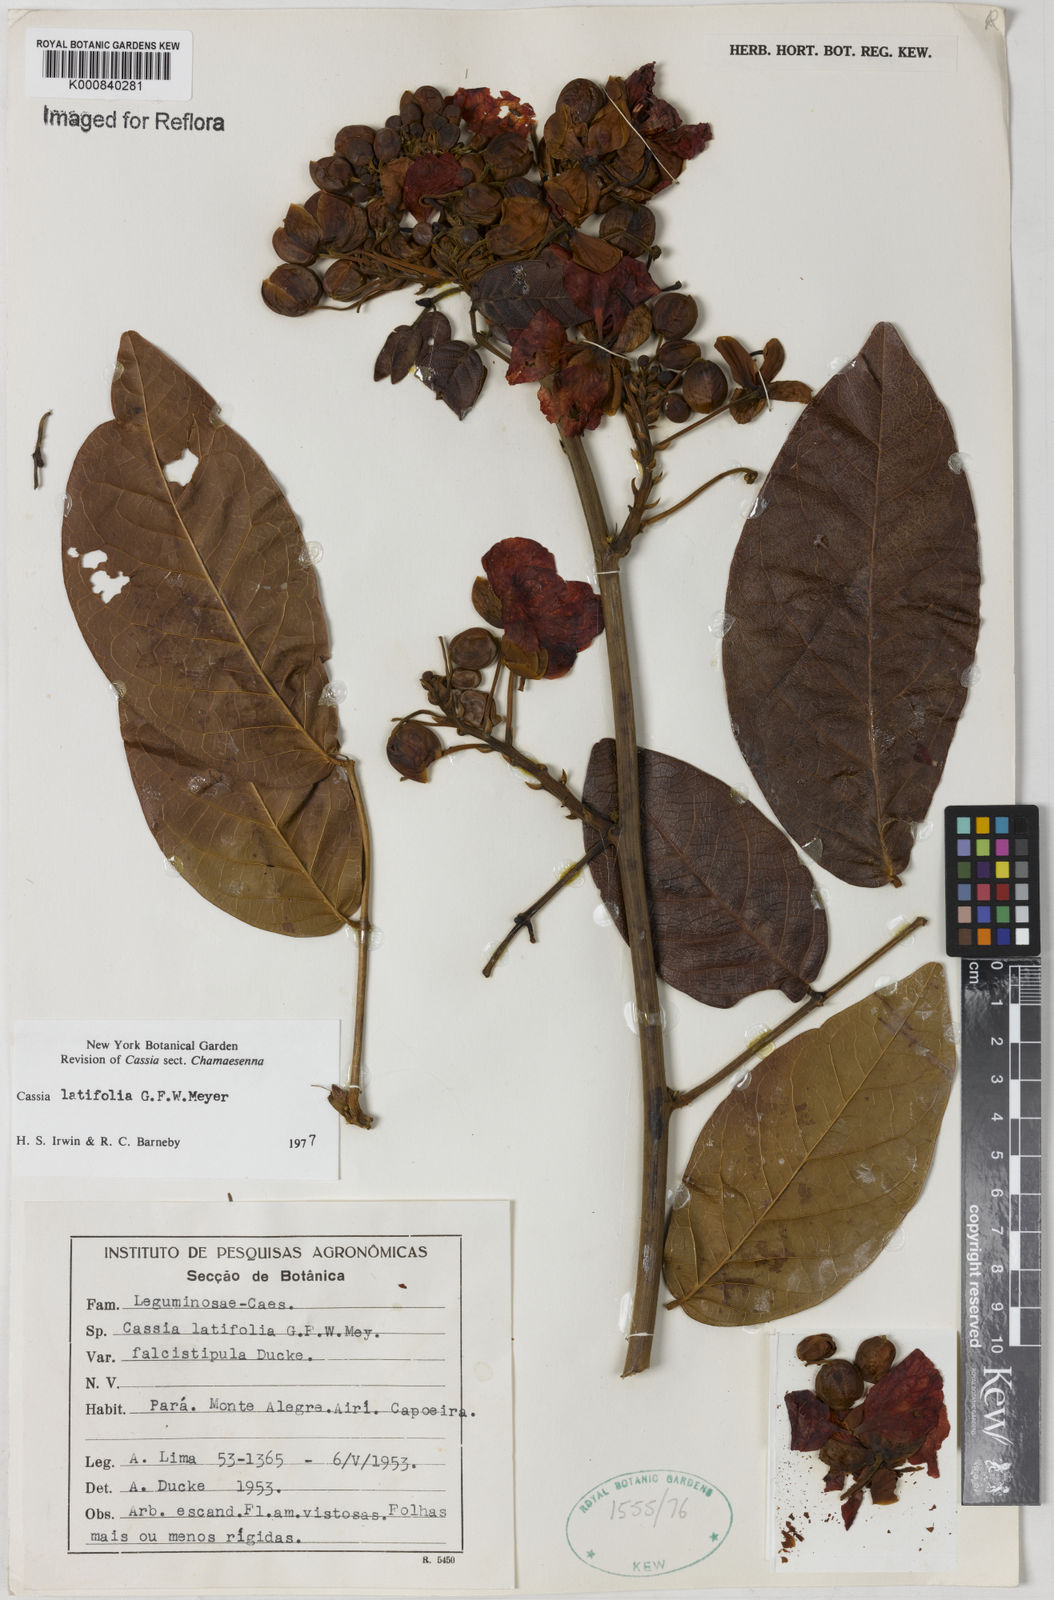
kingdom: Plantae
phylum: Tracheophyta
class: Magnoliopsida
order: Fabales
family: Fabaceae
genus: Senna
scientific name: Senna latifolia
